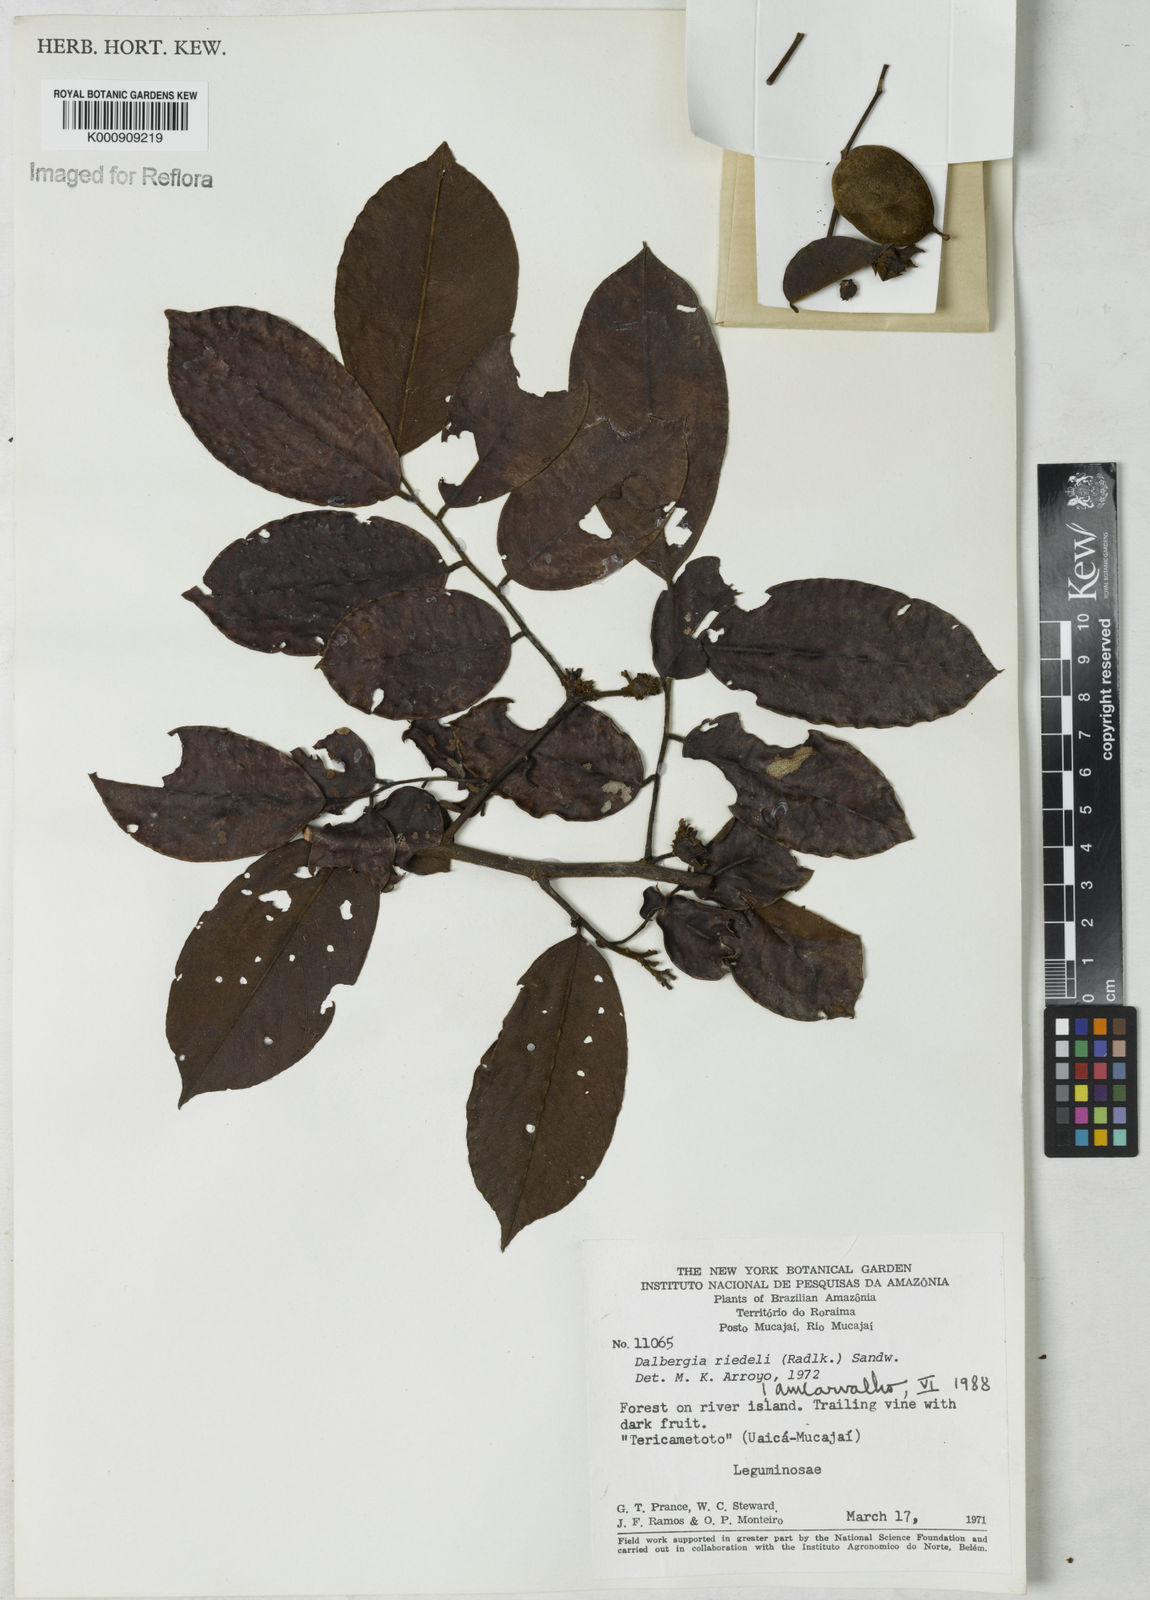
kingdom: Plantae
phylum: Tracheophyta
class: Magnoliopsida
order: Fabales
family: Fabaceae
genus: Dalbergia
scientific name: Dalbergia riedelii
